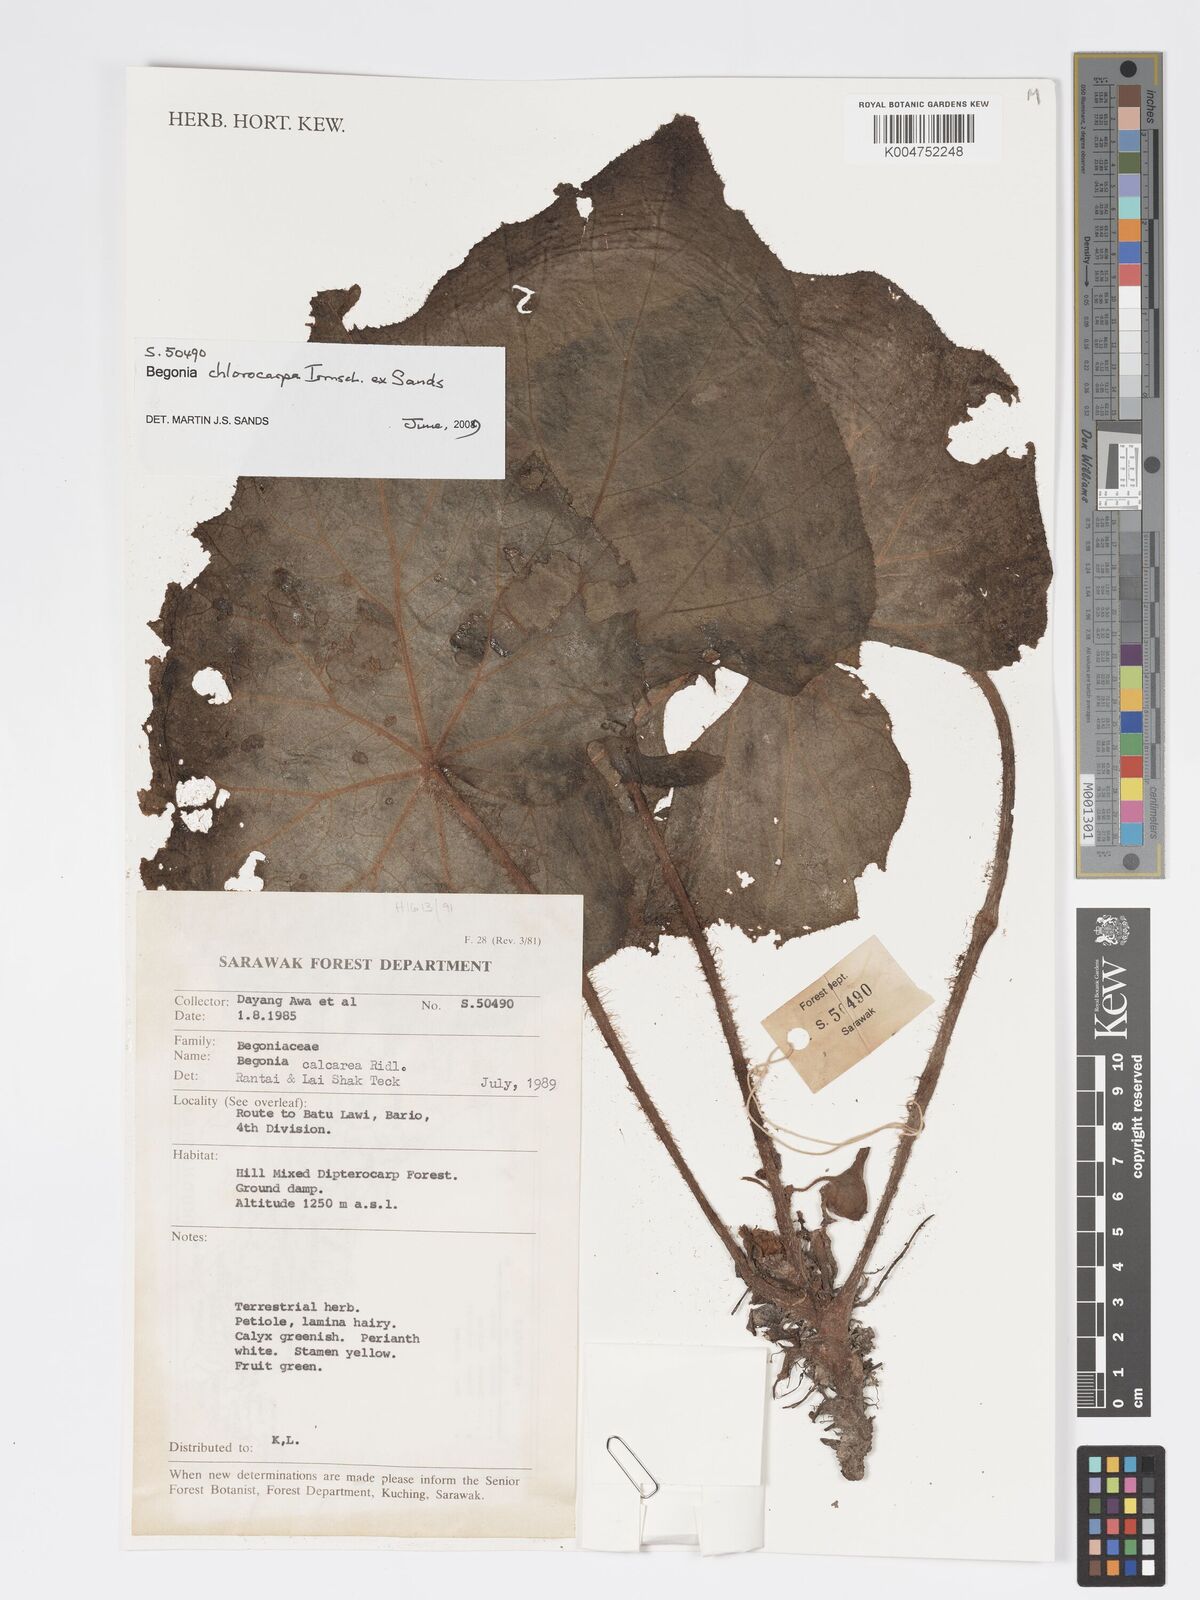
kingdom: Plantae
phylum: Tracheophyta
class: Magnoliopsida
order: Cucurbitales
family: Begoniaceae
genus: Begonia
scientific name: Begonia chlorocarpa
